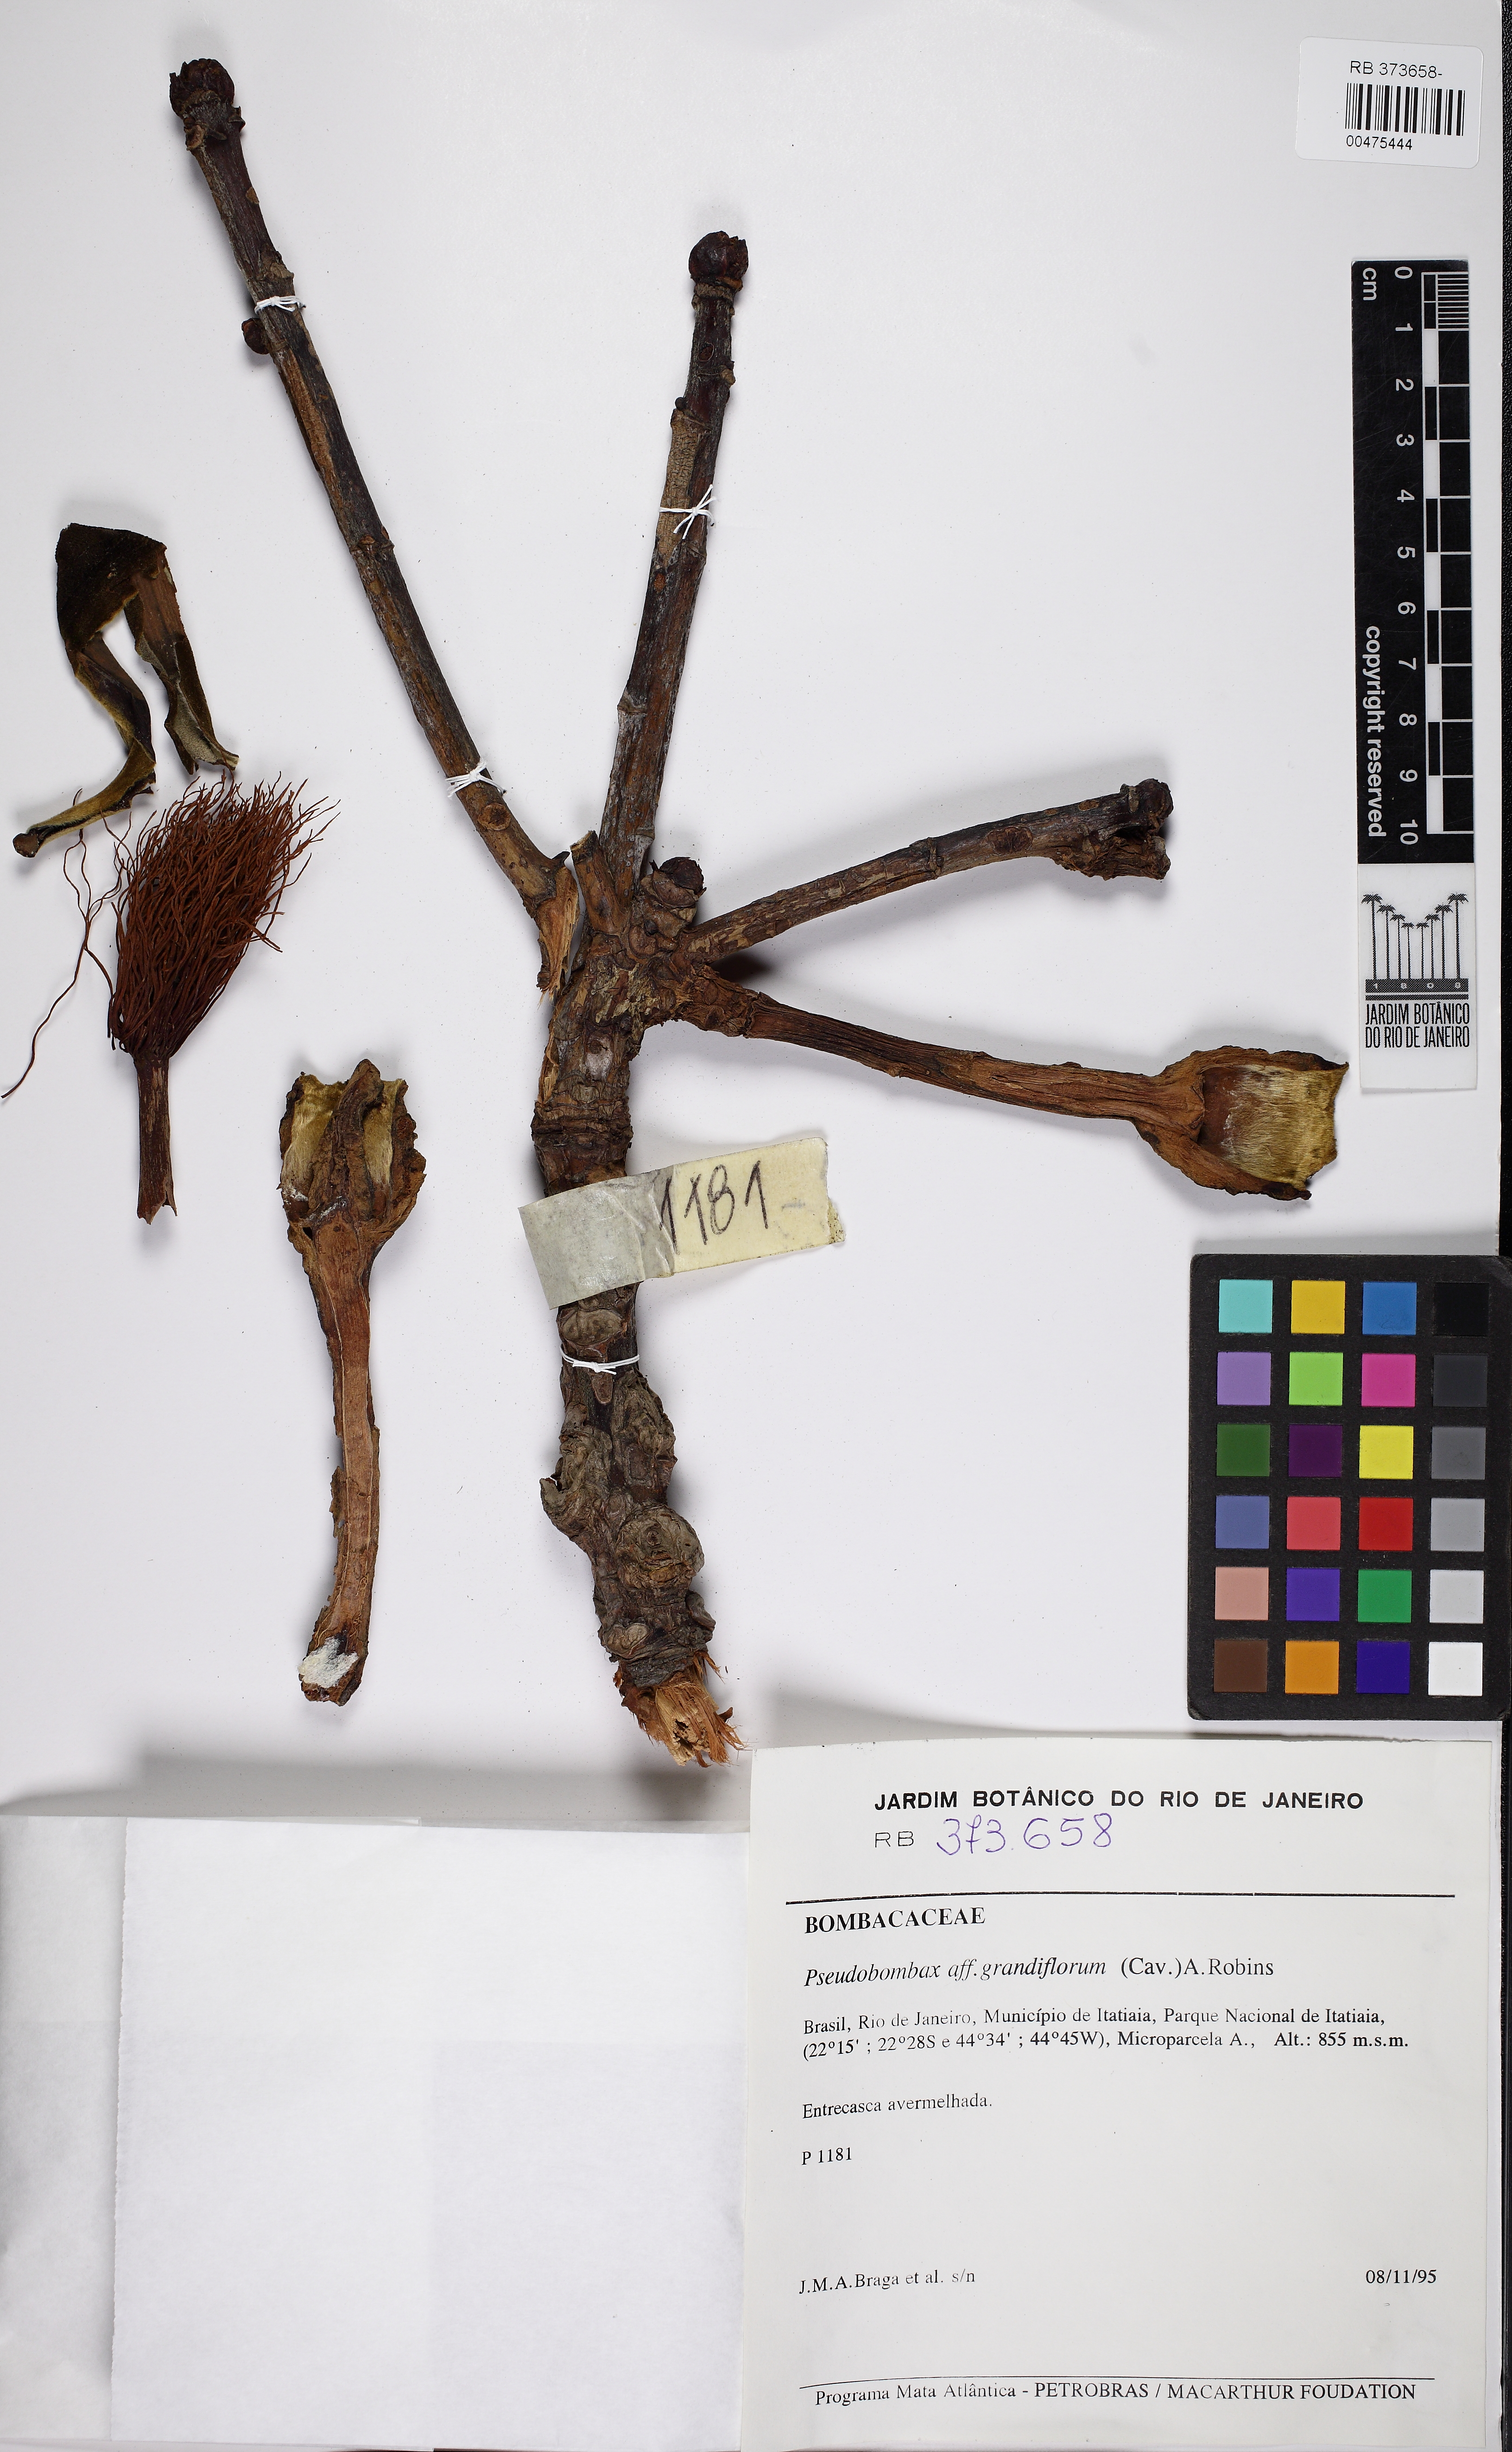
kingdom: Plantae
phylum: Tracheophyta
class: Magnoliopsida
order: Malvales
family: Malvaceae
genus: Pseudobombax
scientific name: Pseudobombax grandiflorum
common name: Brazilian shaving-brush-tree
